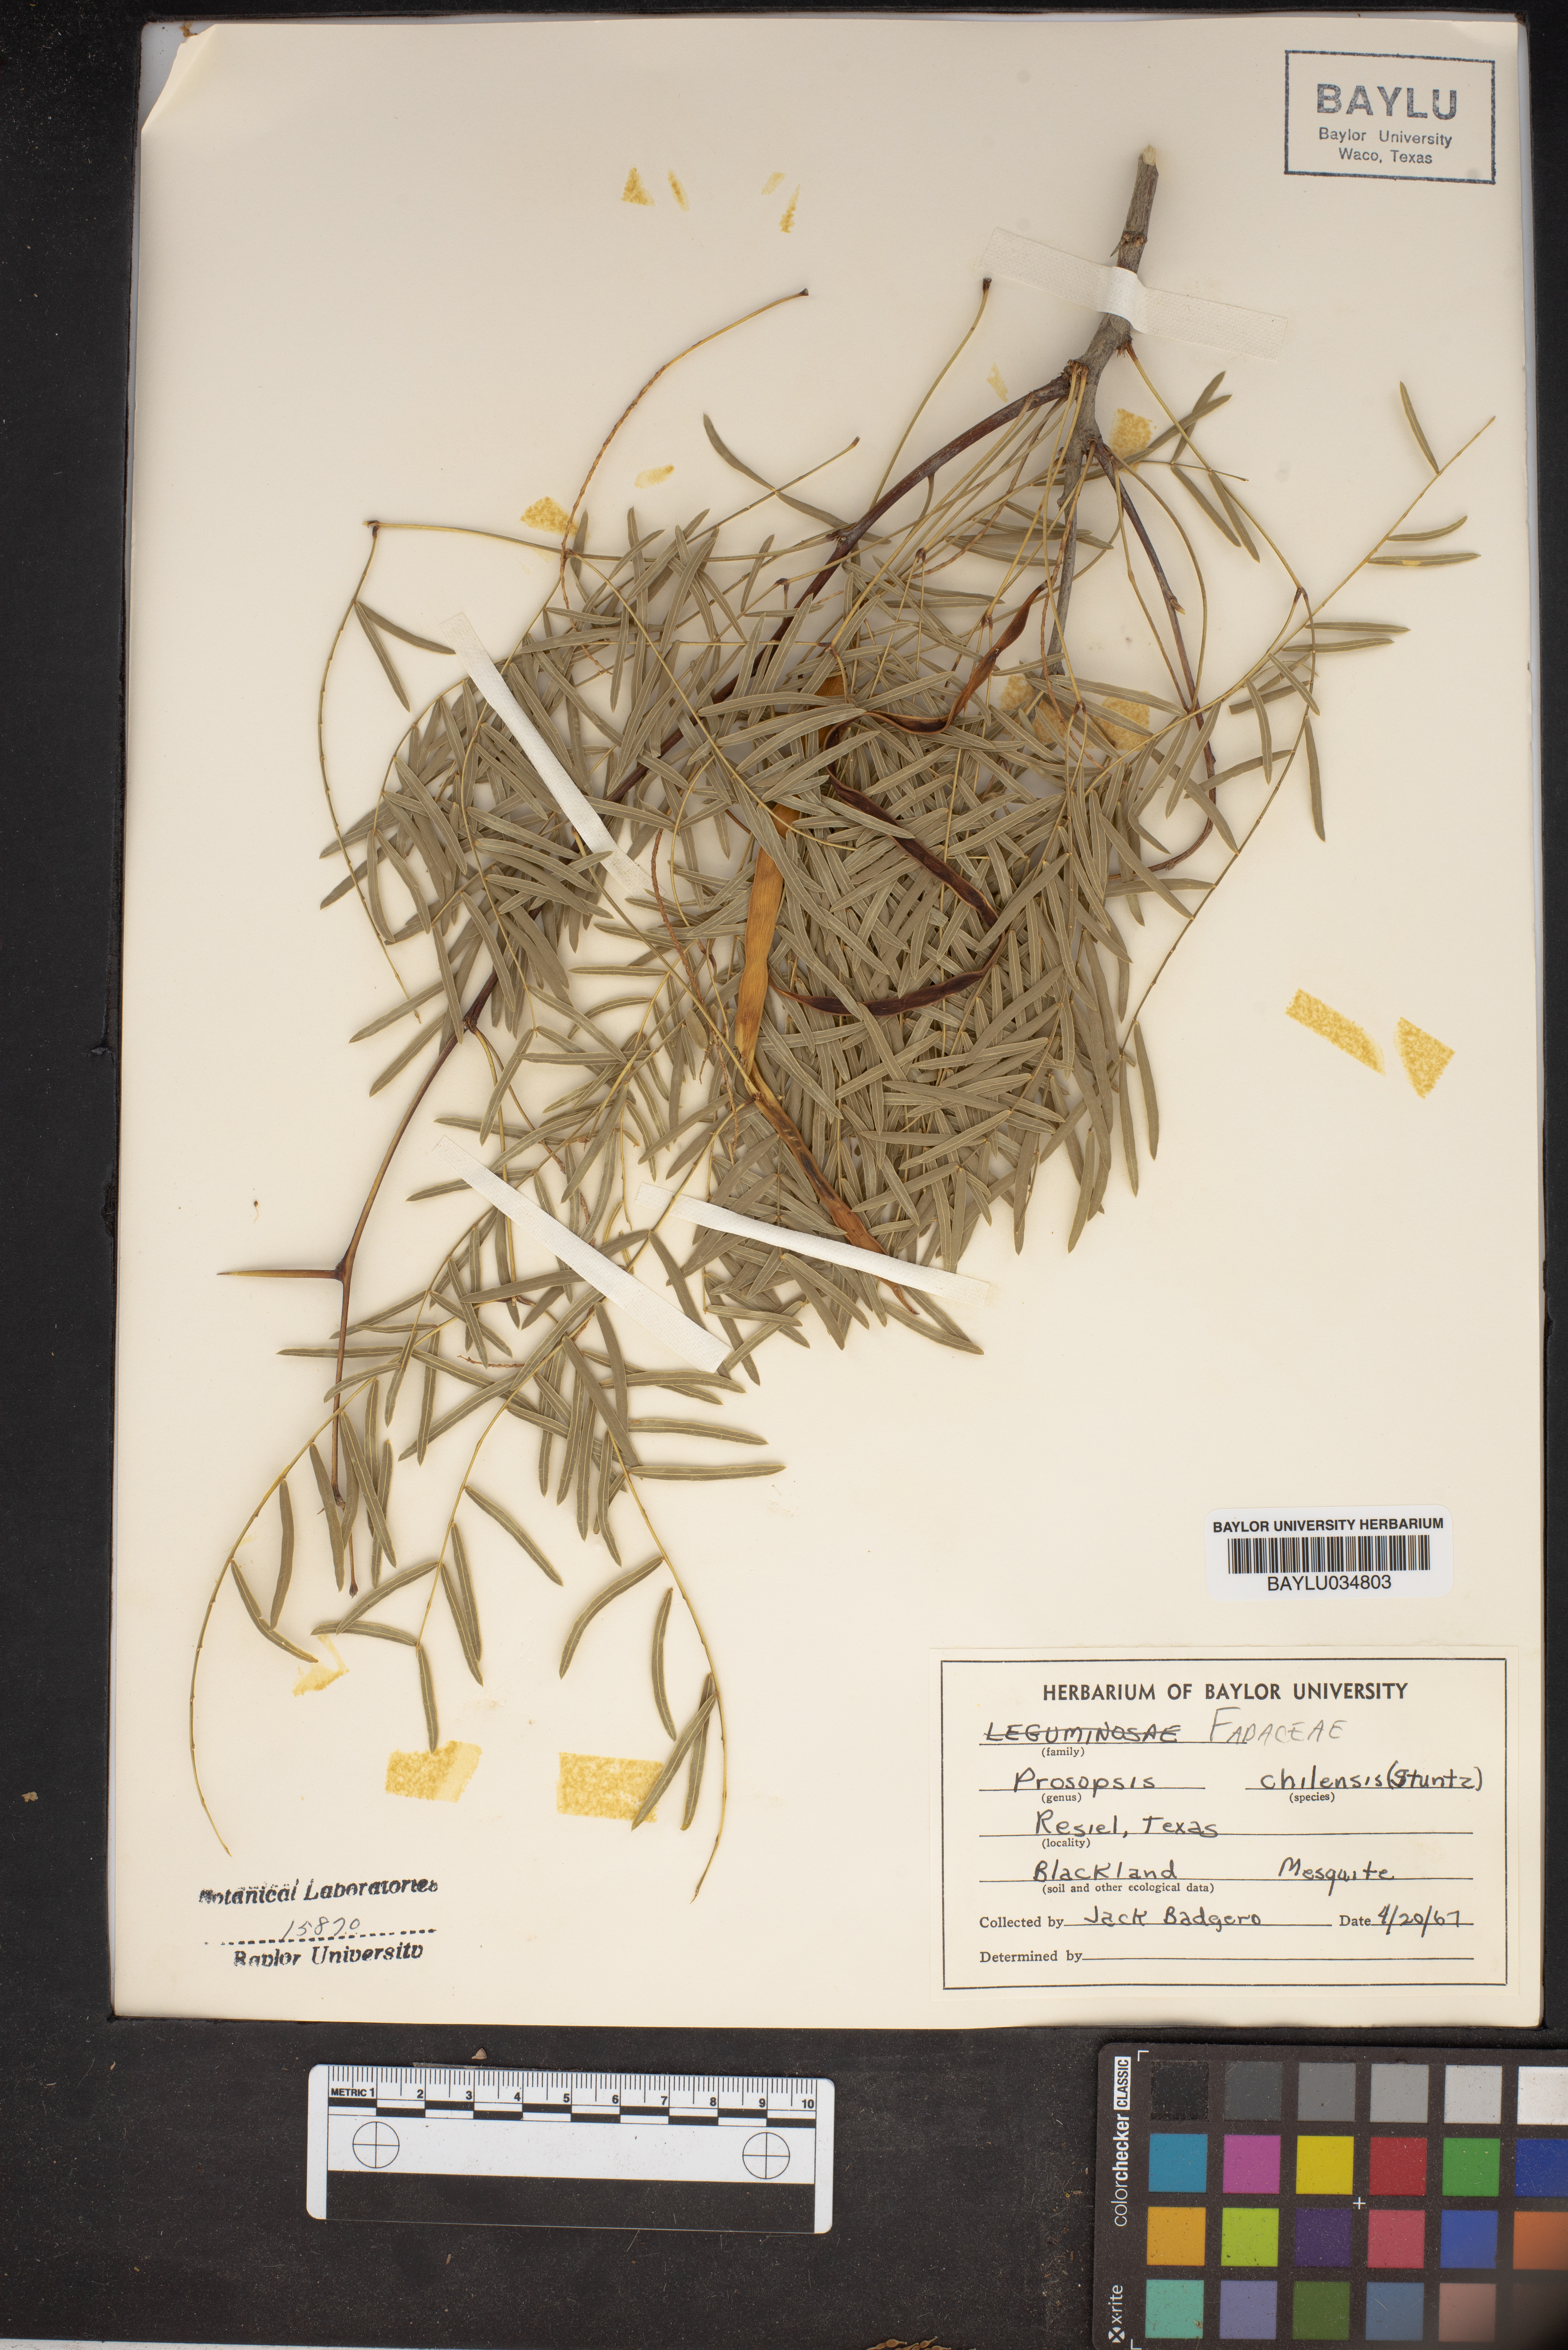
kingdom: Plantae
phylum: Tracheophyta
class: Magnoliopsida
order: Fabales
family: Fabaceae
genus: Prosopis
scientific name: Prosopis chilensis
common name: Chilean algarrobo
